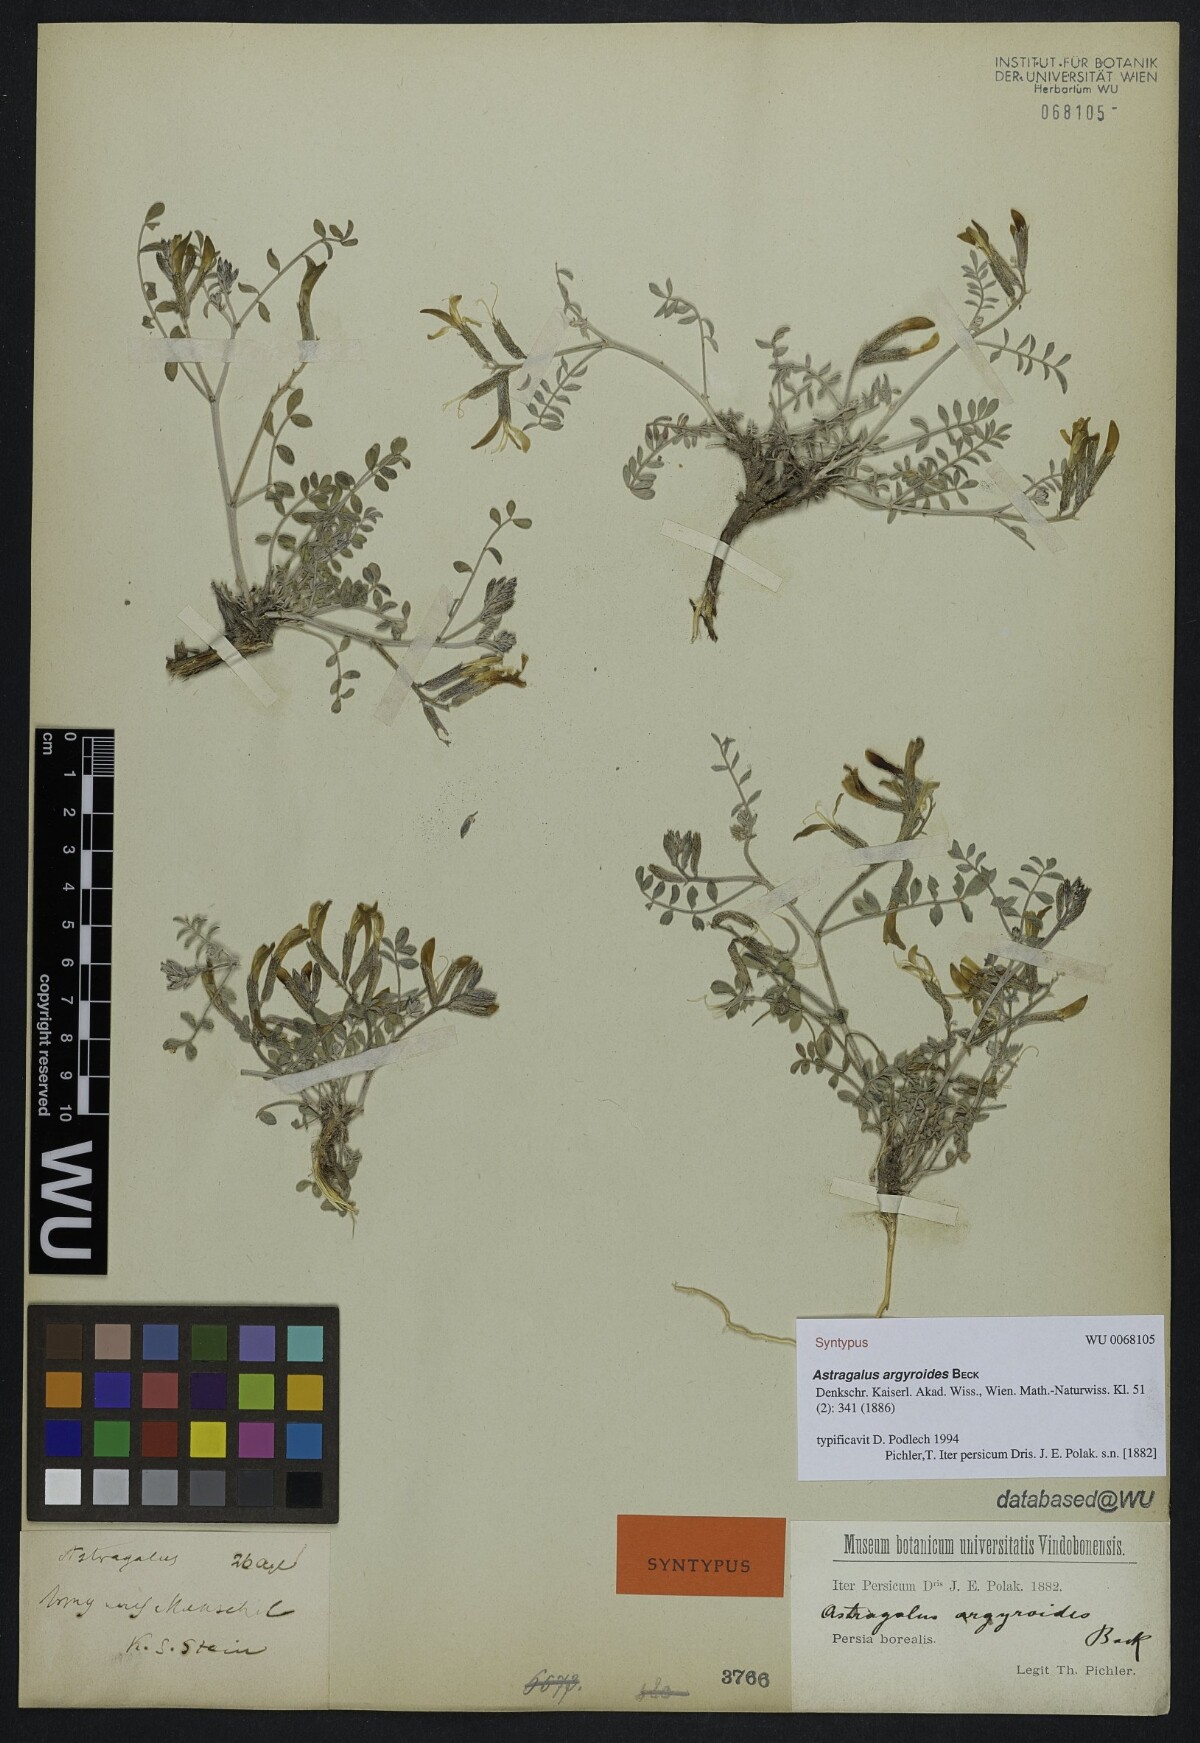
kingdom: Plantae
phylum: Tracheophyta
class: Magnoliopsida
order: Fabales
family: Fabaceae
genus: Astragalus
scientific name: Astragalus argyroides
